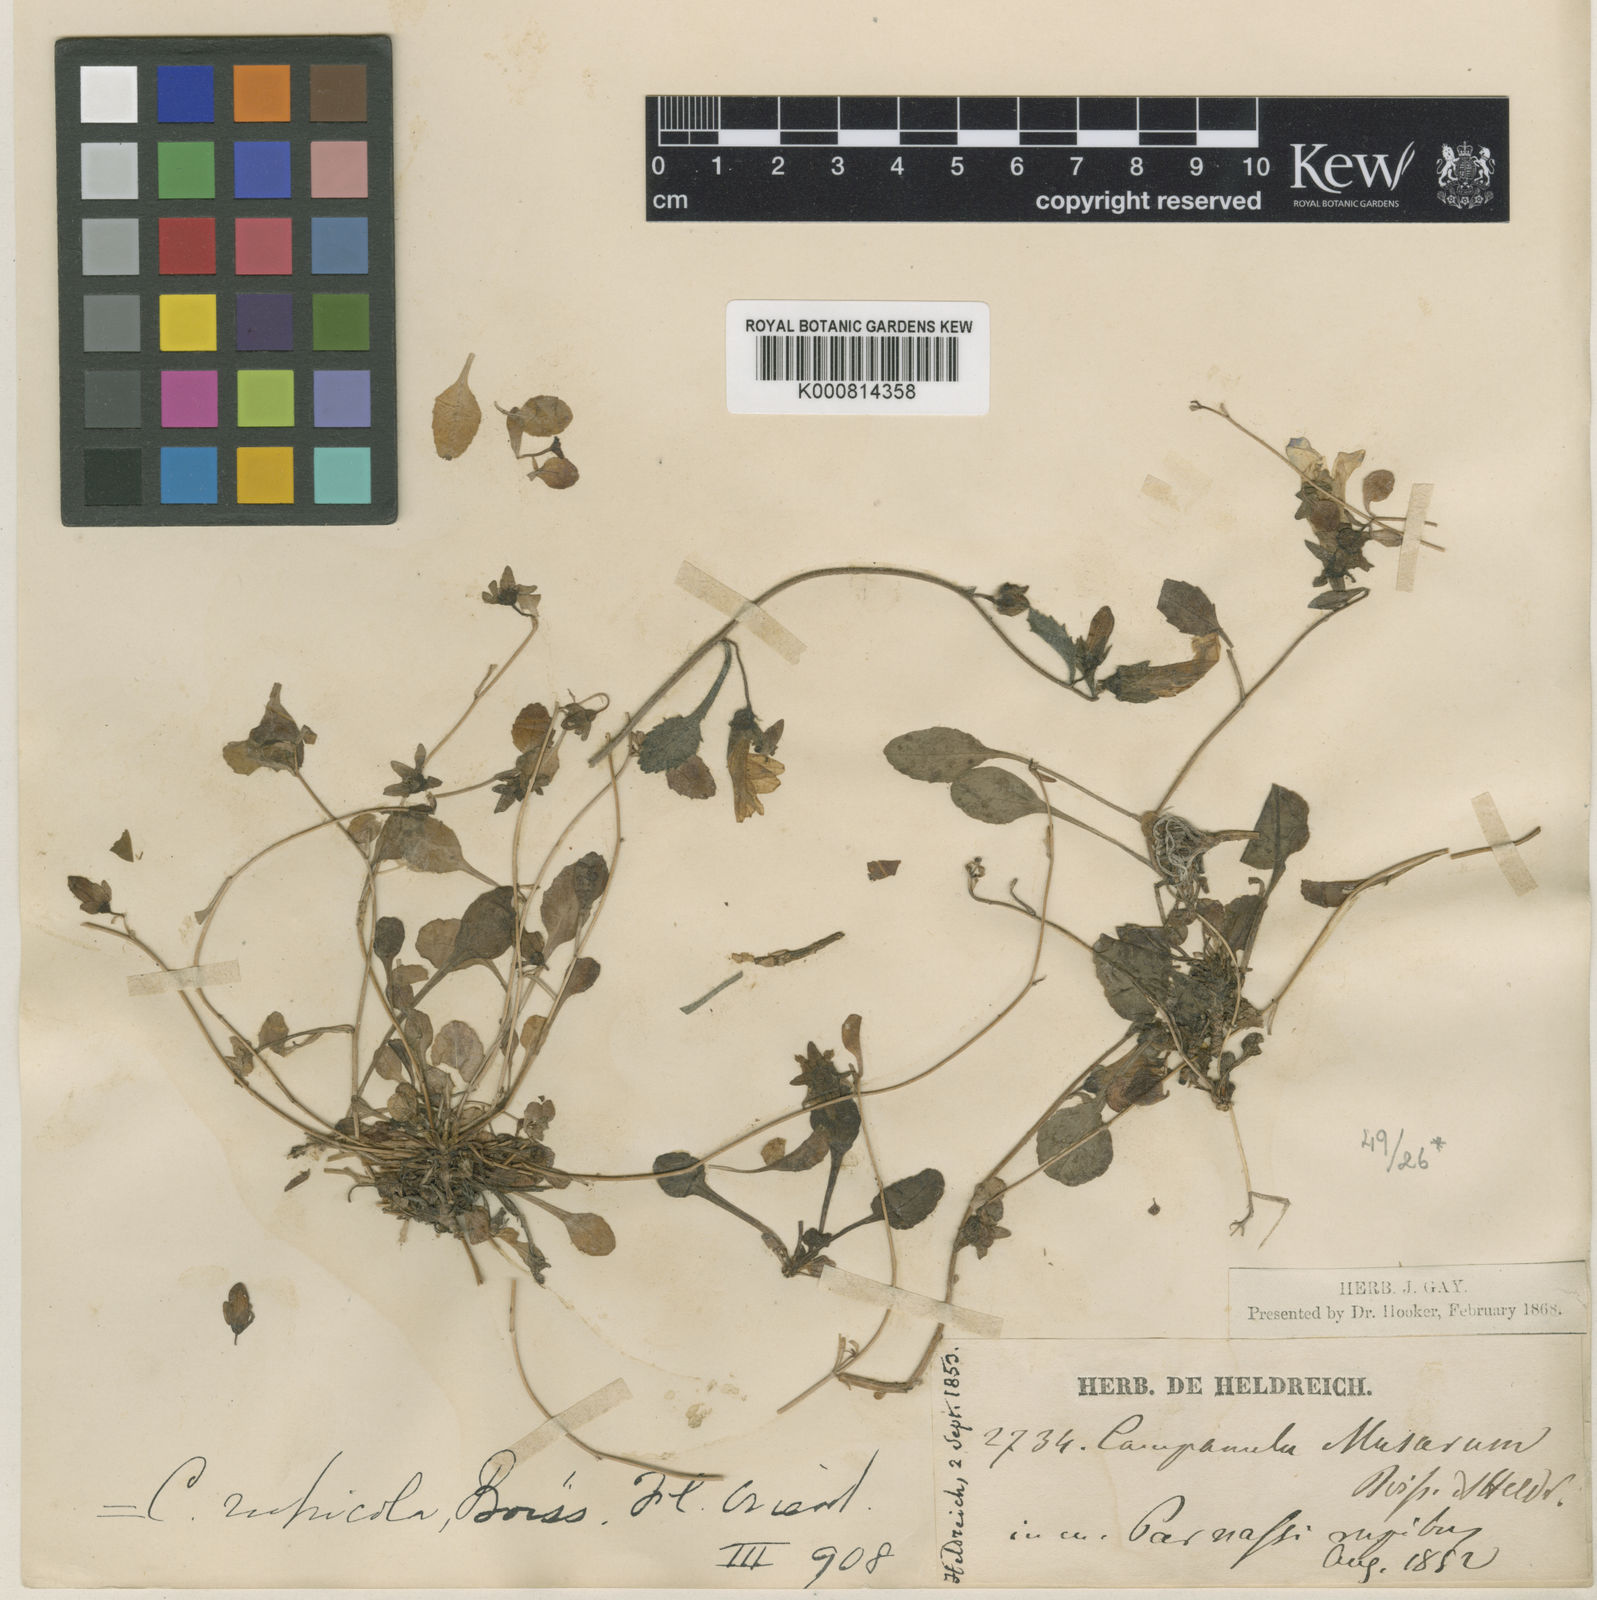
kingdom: Plantae
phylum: Tracheophyta
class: Magnoliopsida
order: Asterales
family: Campanulaceae
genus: Campanula
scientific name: Campanula rupicola
